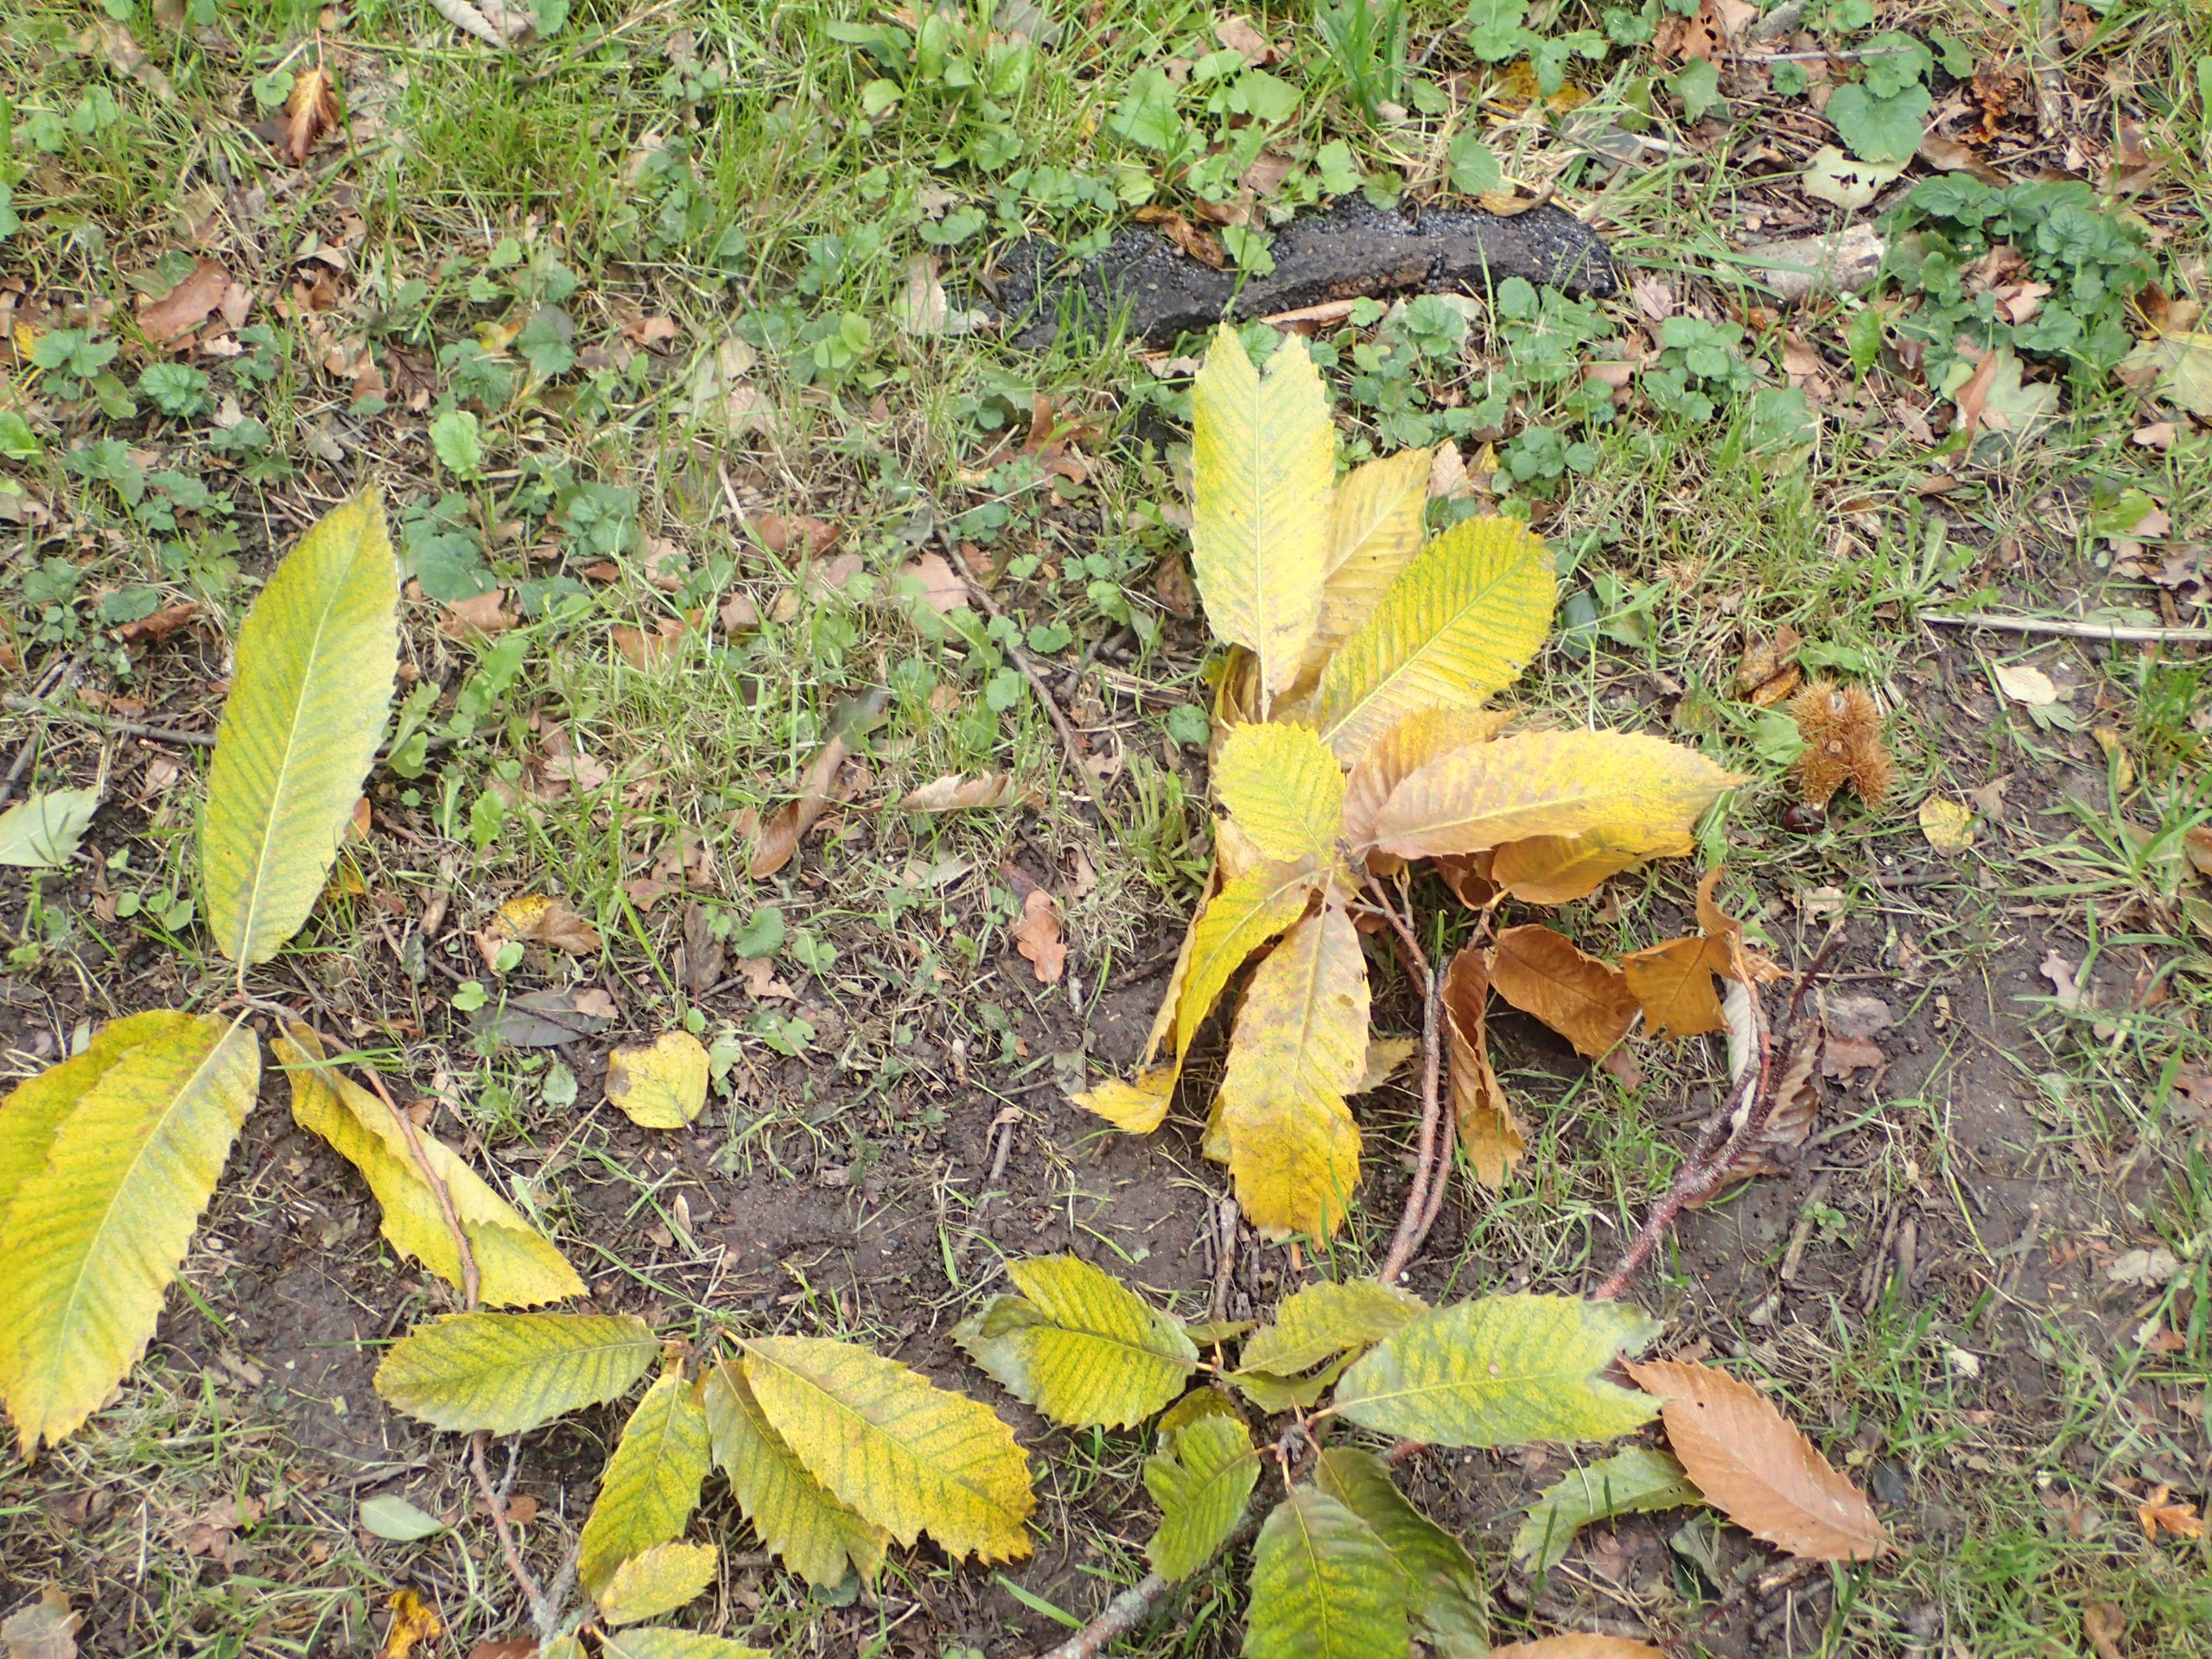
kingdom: Plantae
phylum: Tracheophyta
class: Magnoliopsida
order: Fagales
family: Fagaceae
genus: Castanea
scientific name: Castanea sativa
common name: Ægte kastanie
